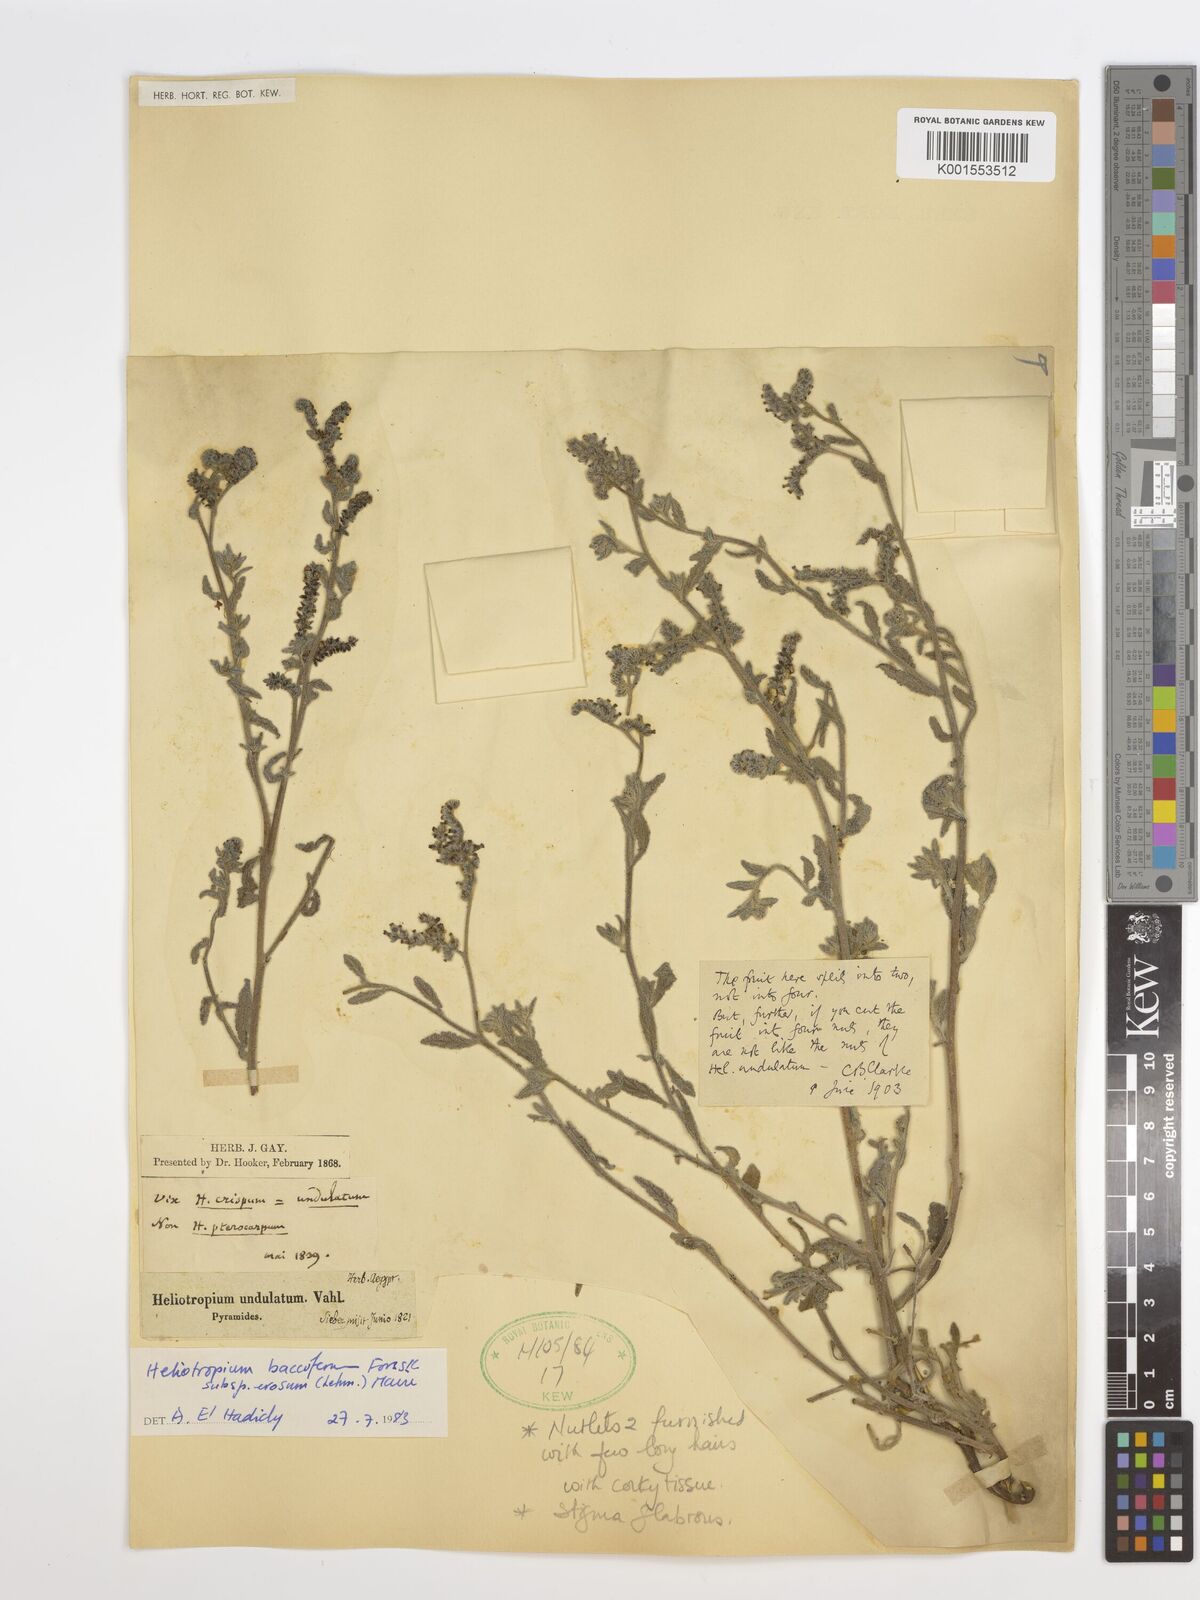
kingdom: Plantae
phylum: Tracheophyta
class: Magnoliopsida
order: Boraginales
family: Heliotropiaceae
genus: Heliotropium
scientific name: Heliotropium crispum
